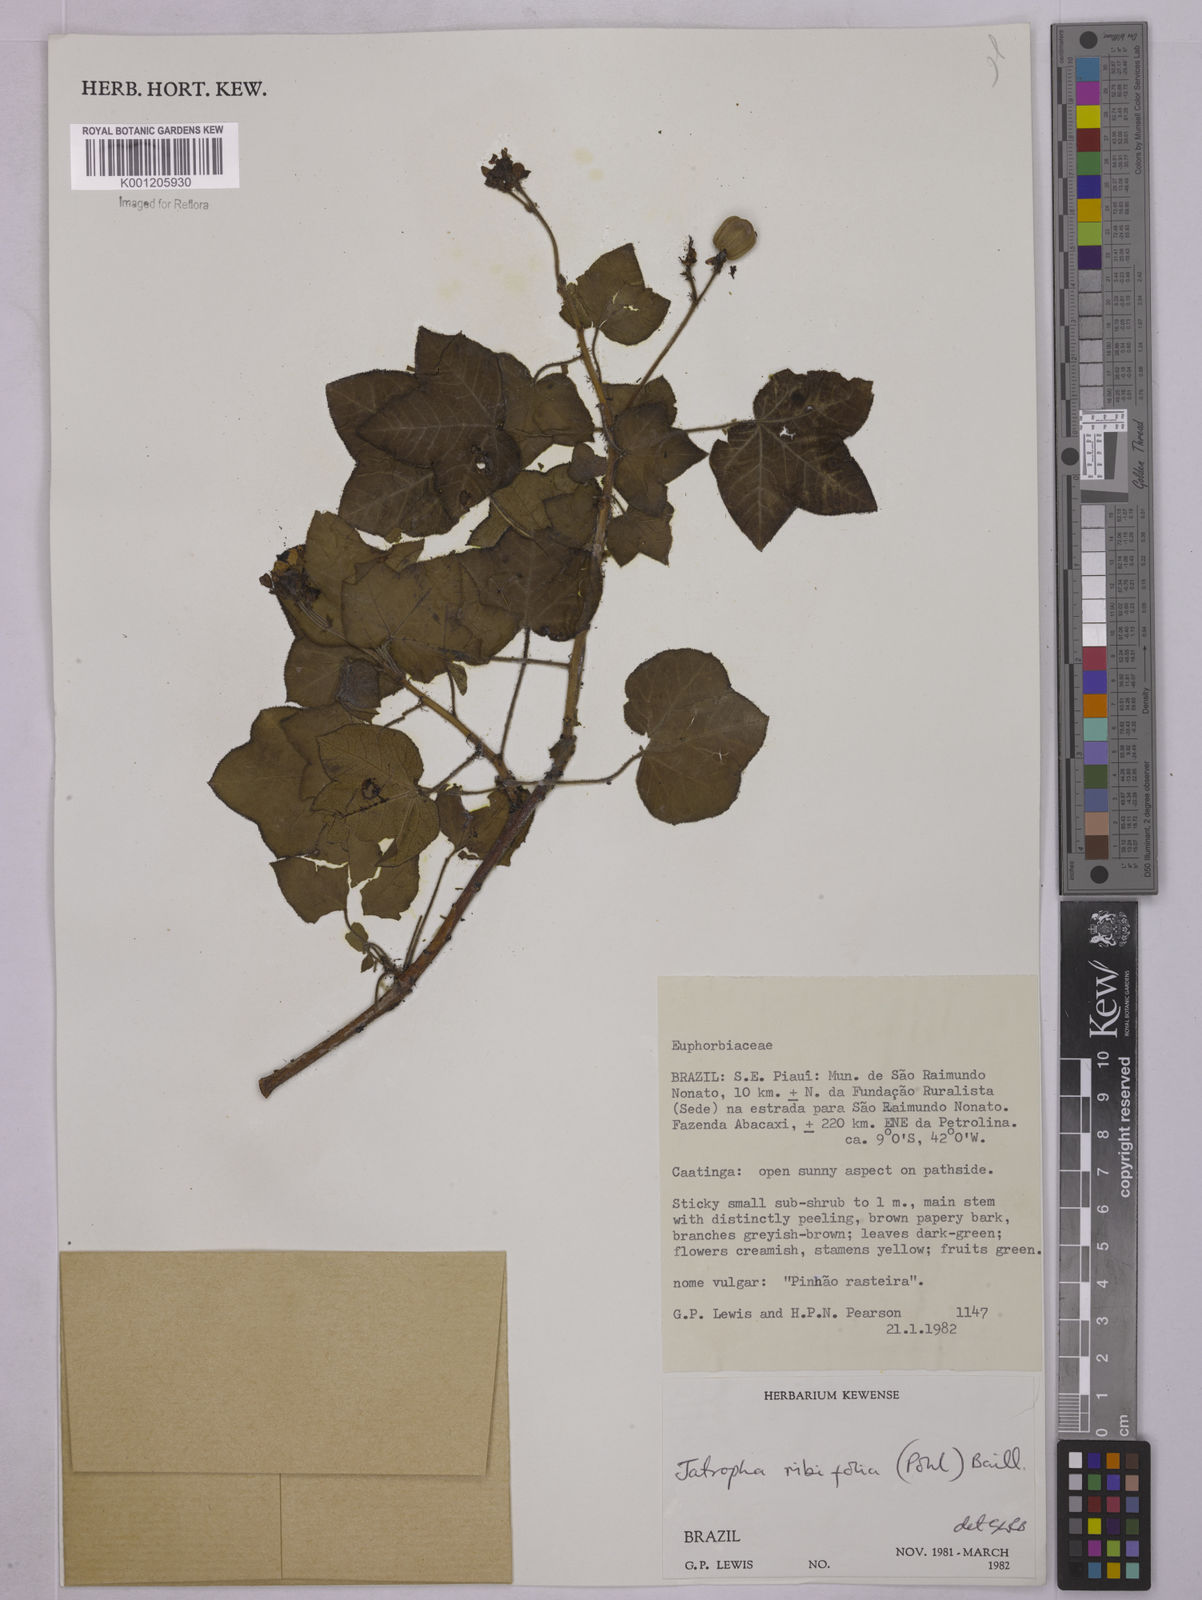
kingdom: Plantae
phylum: Tracheophyta
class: Magnoliopsida
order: Malpighiales
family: Euphorbiaceae
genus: Jatropha
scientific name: Jatropha ribifolia
